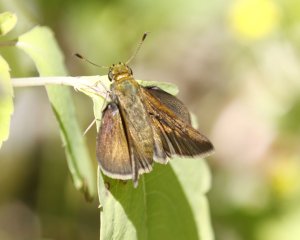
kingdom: Animalia
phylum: Arthropoda
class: Insecta
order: Lepidoptera
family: Hesperiidae
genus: Polites
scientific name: Polites
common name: Crossline Skipper
